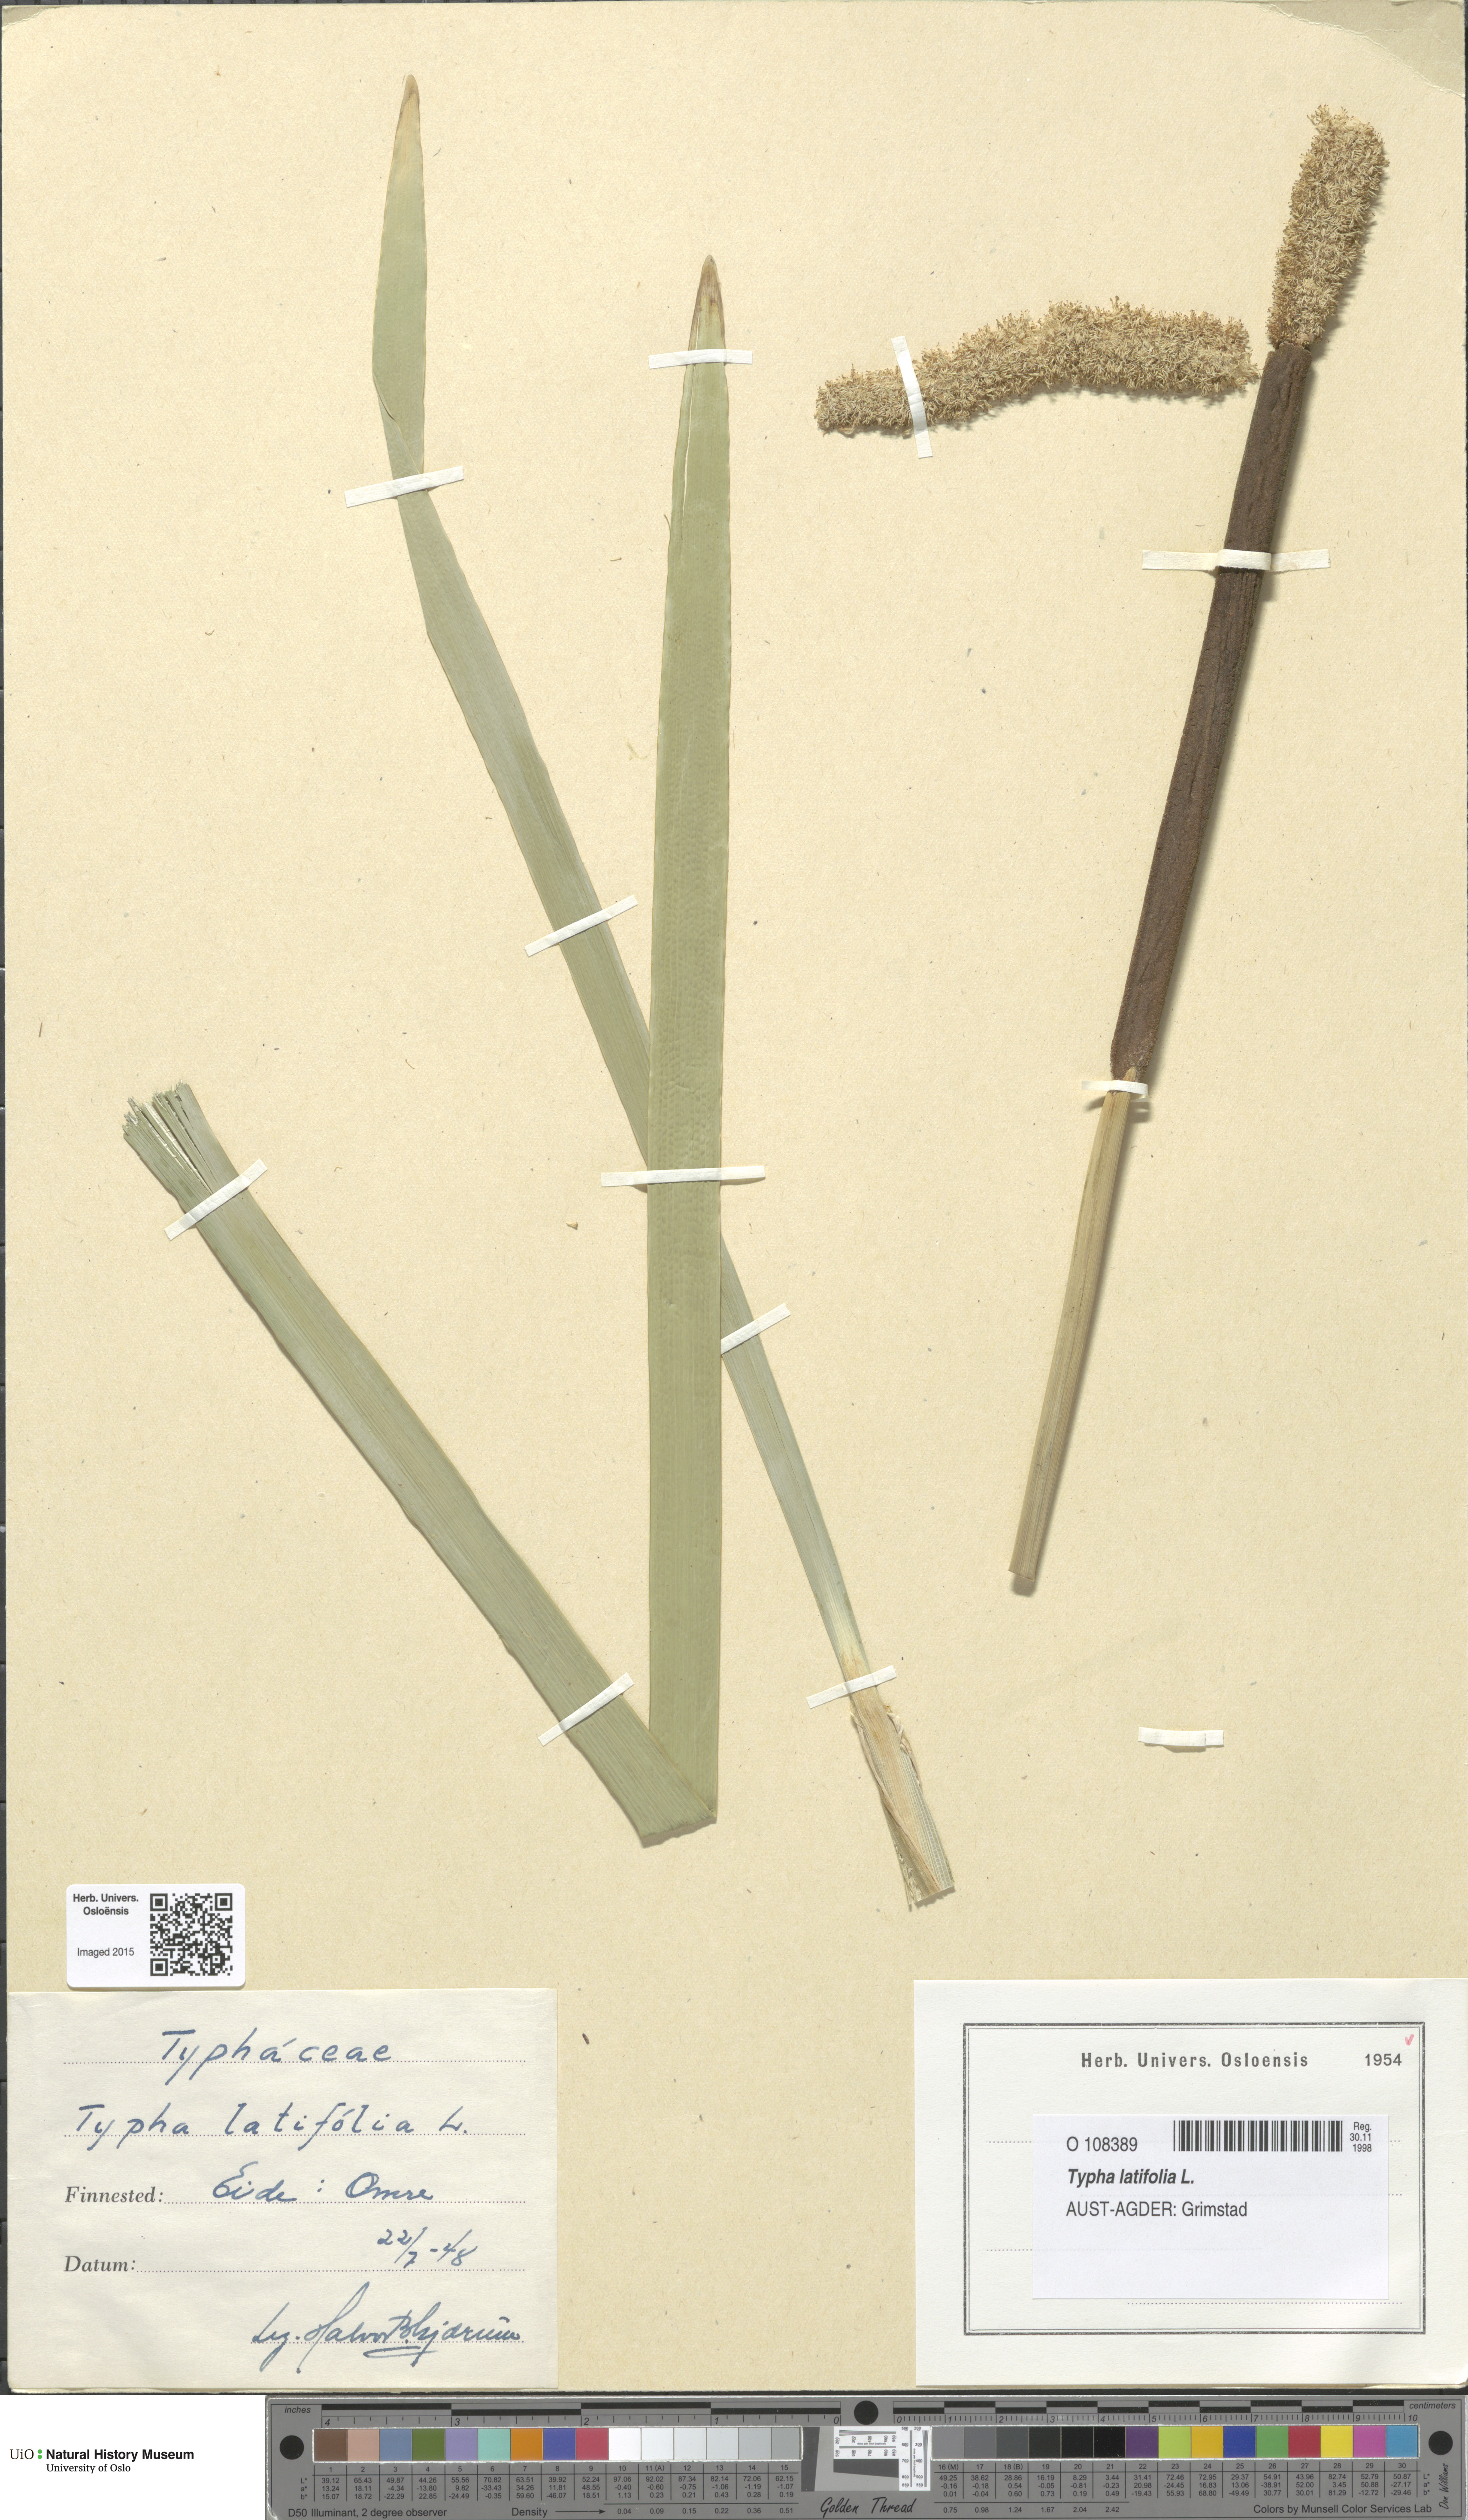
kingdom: Plantae
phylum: Tracheophyta
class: Liliopsida
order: Poales
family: Typhaceae
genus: Typha
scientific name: Typha latifolia
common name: Broadleaf cattail
